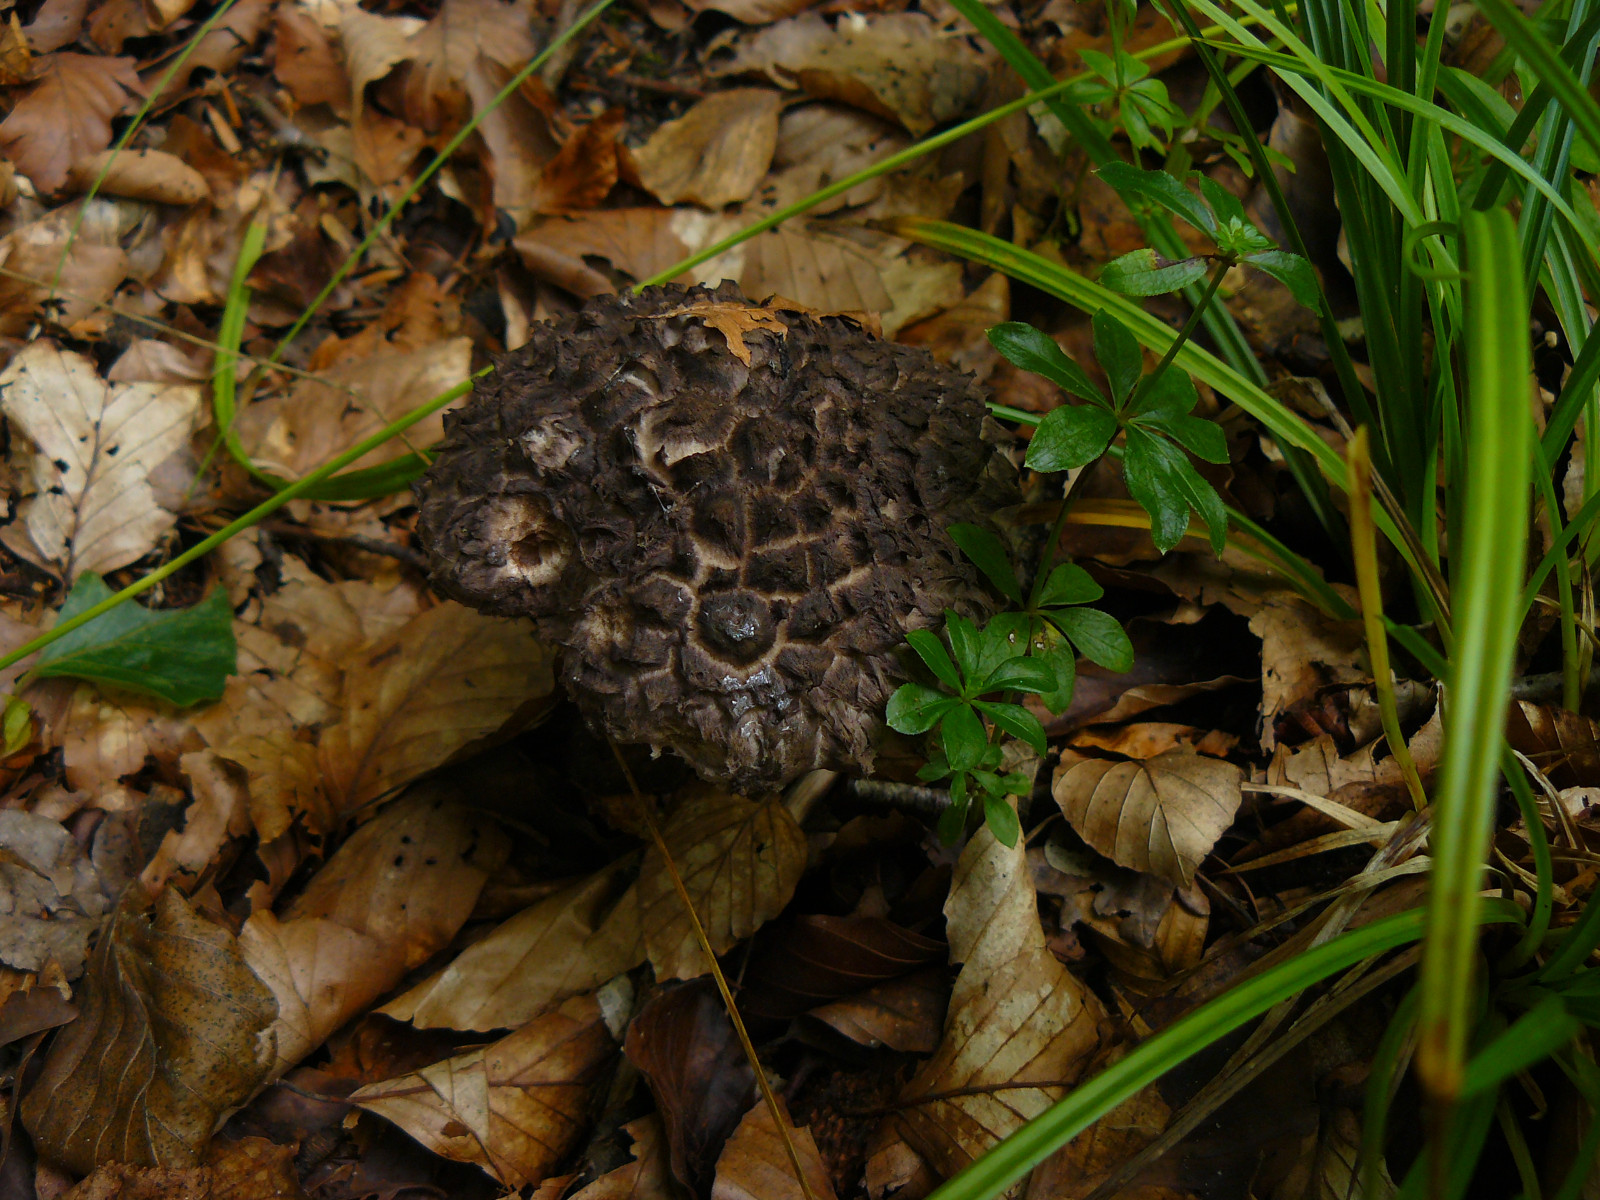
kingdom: Fungi
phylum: Basidiomycota
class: Agaricomycetes
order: Boletales
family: Boletaceae
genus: Strobilomyces
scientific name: Strobilomyces strobilaceus
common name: koglerørhat
